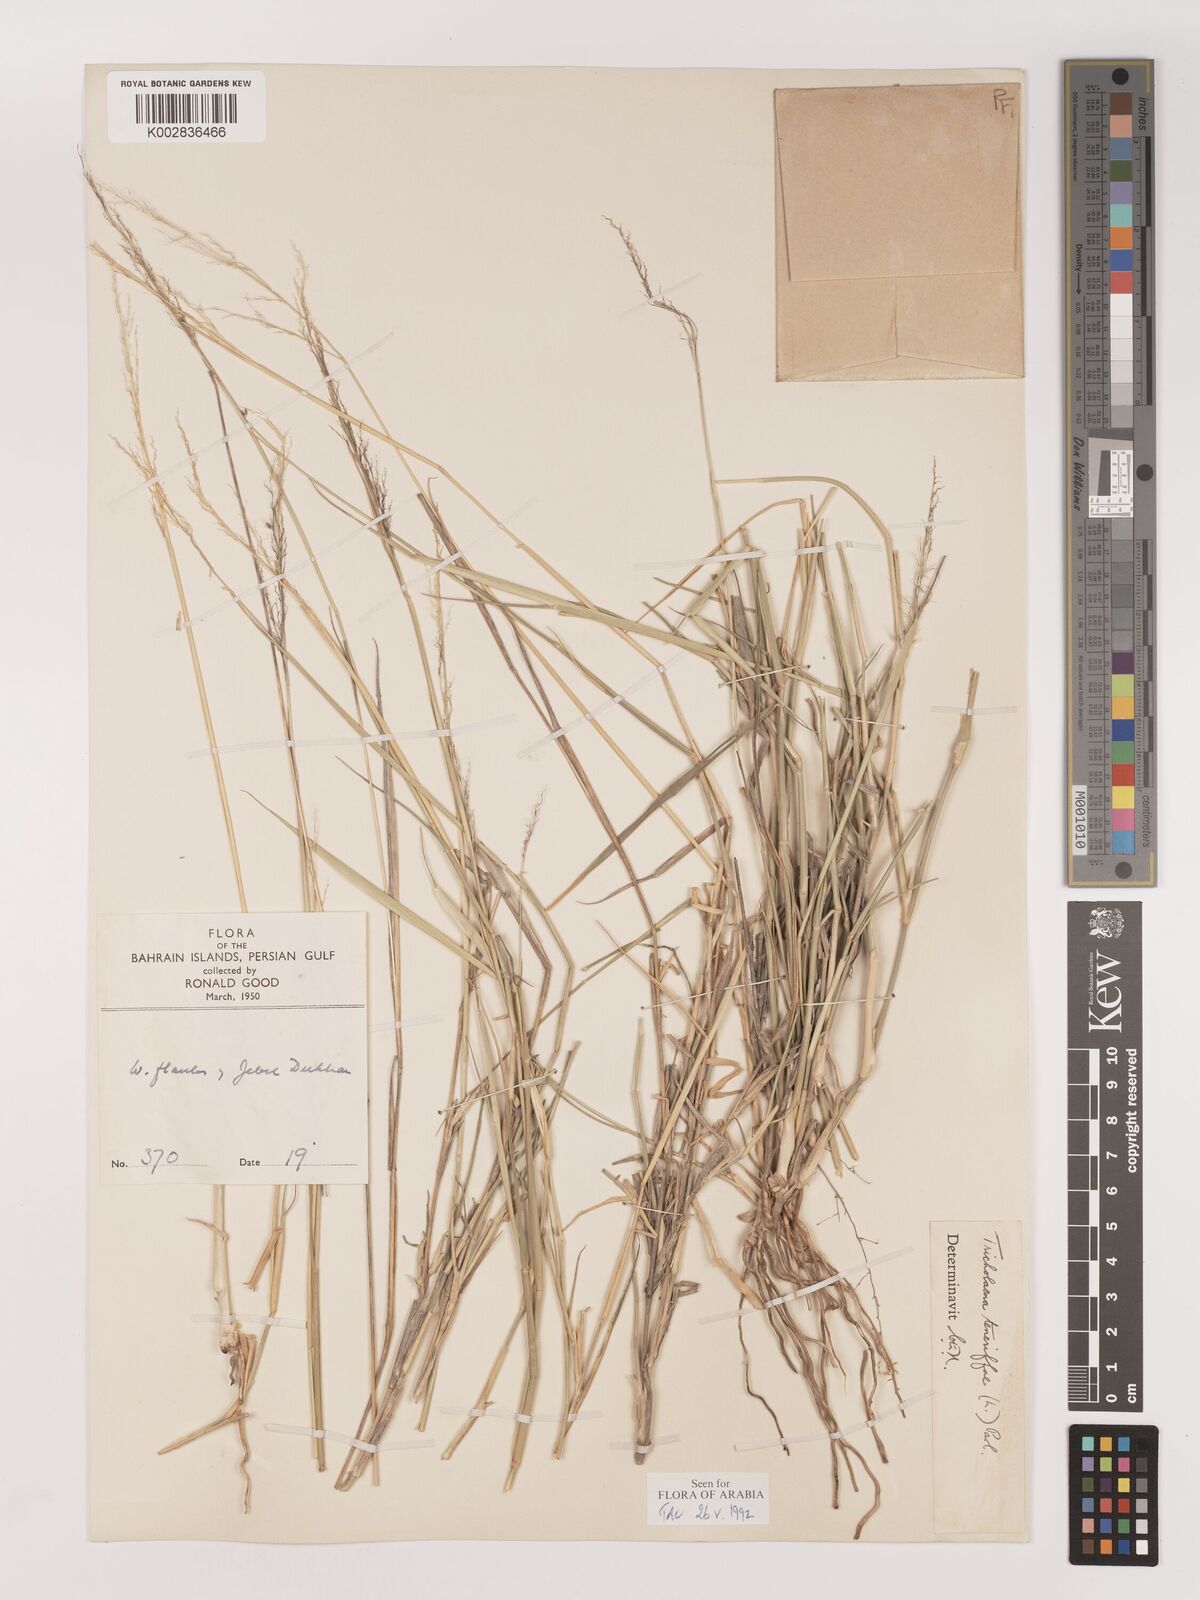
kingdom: Plantae
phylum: Tracheophyta
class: Liliopsida
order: Poales
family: Poaceae
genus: Tricholaena
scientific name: Tricholaena teneriffae
